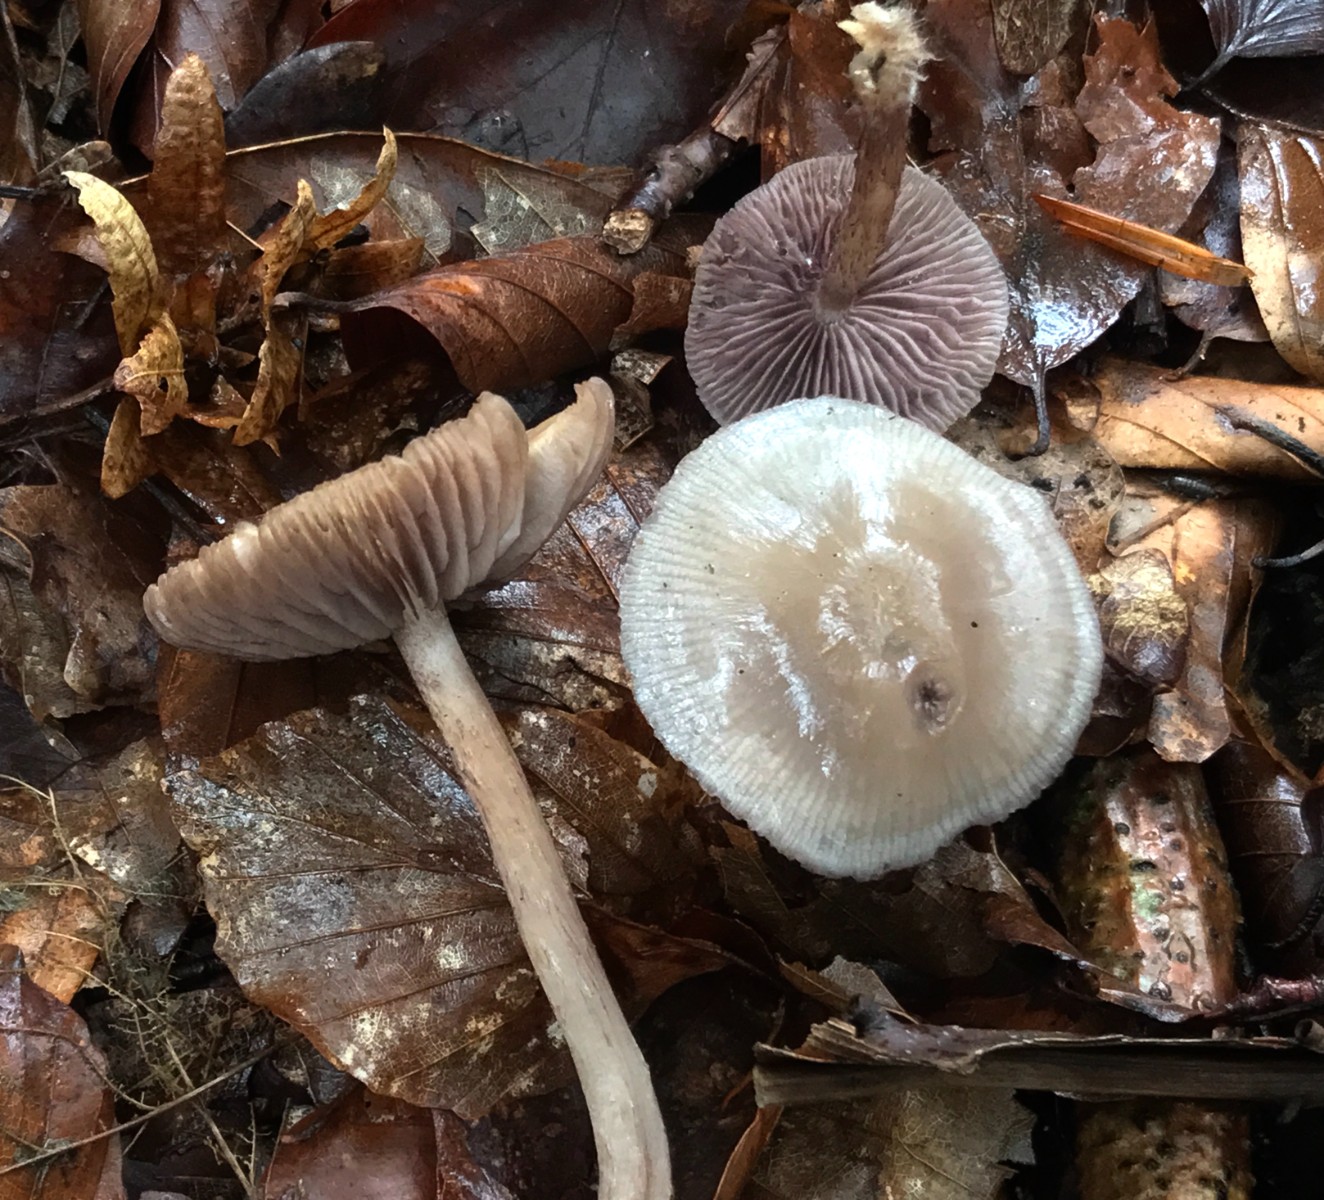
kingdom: Fungi
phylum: Basidiomycota
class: Agaricomycetes
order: Agaricales
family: Mycenaceae
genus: Mycena
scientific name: Mycena pelianthina
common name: mørkbladet huesvamp
